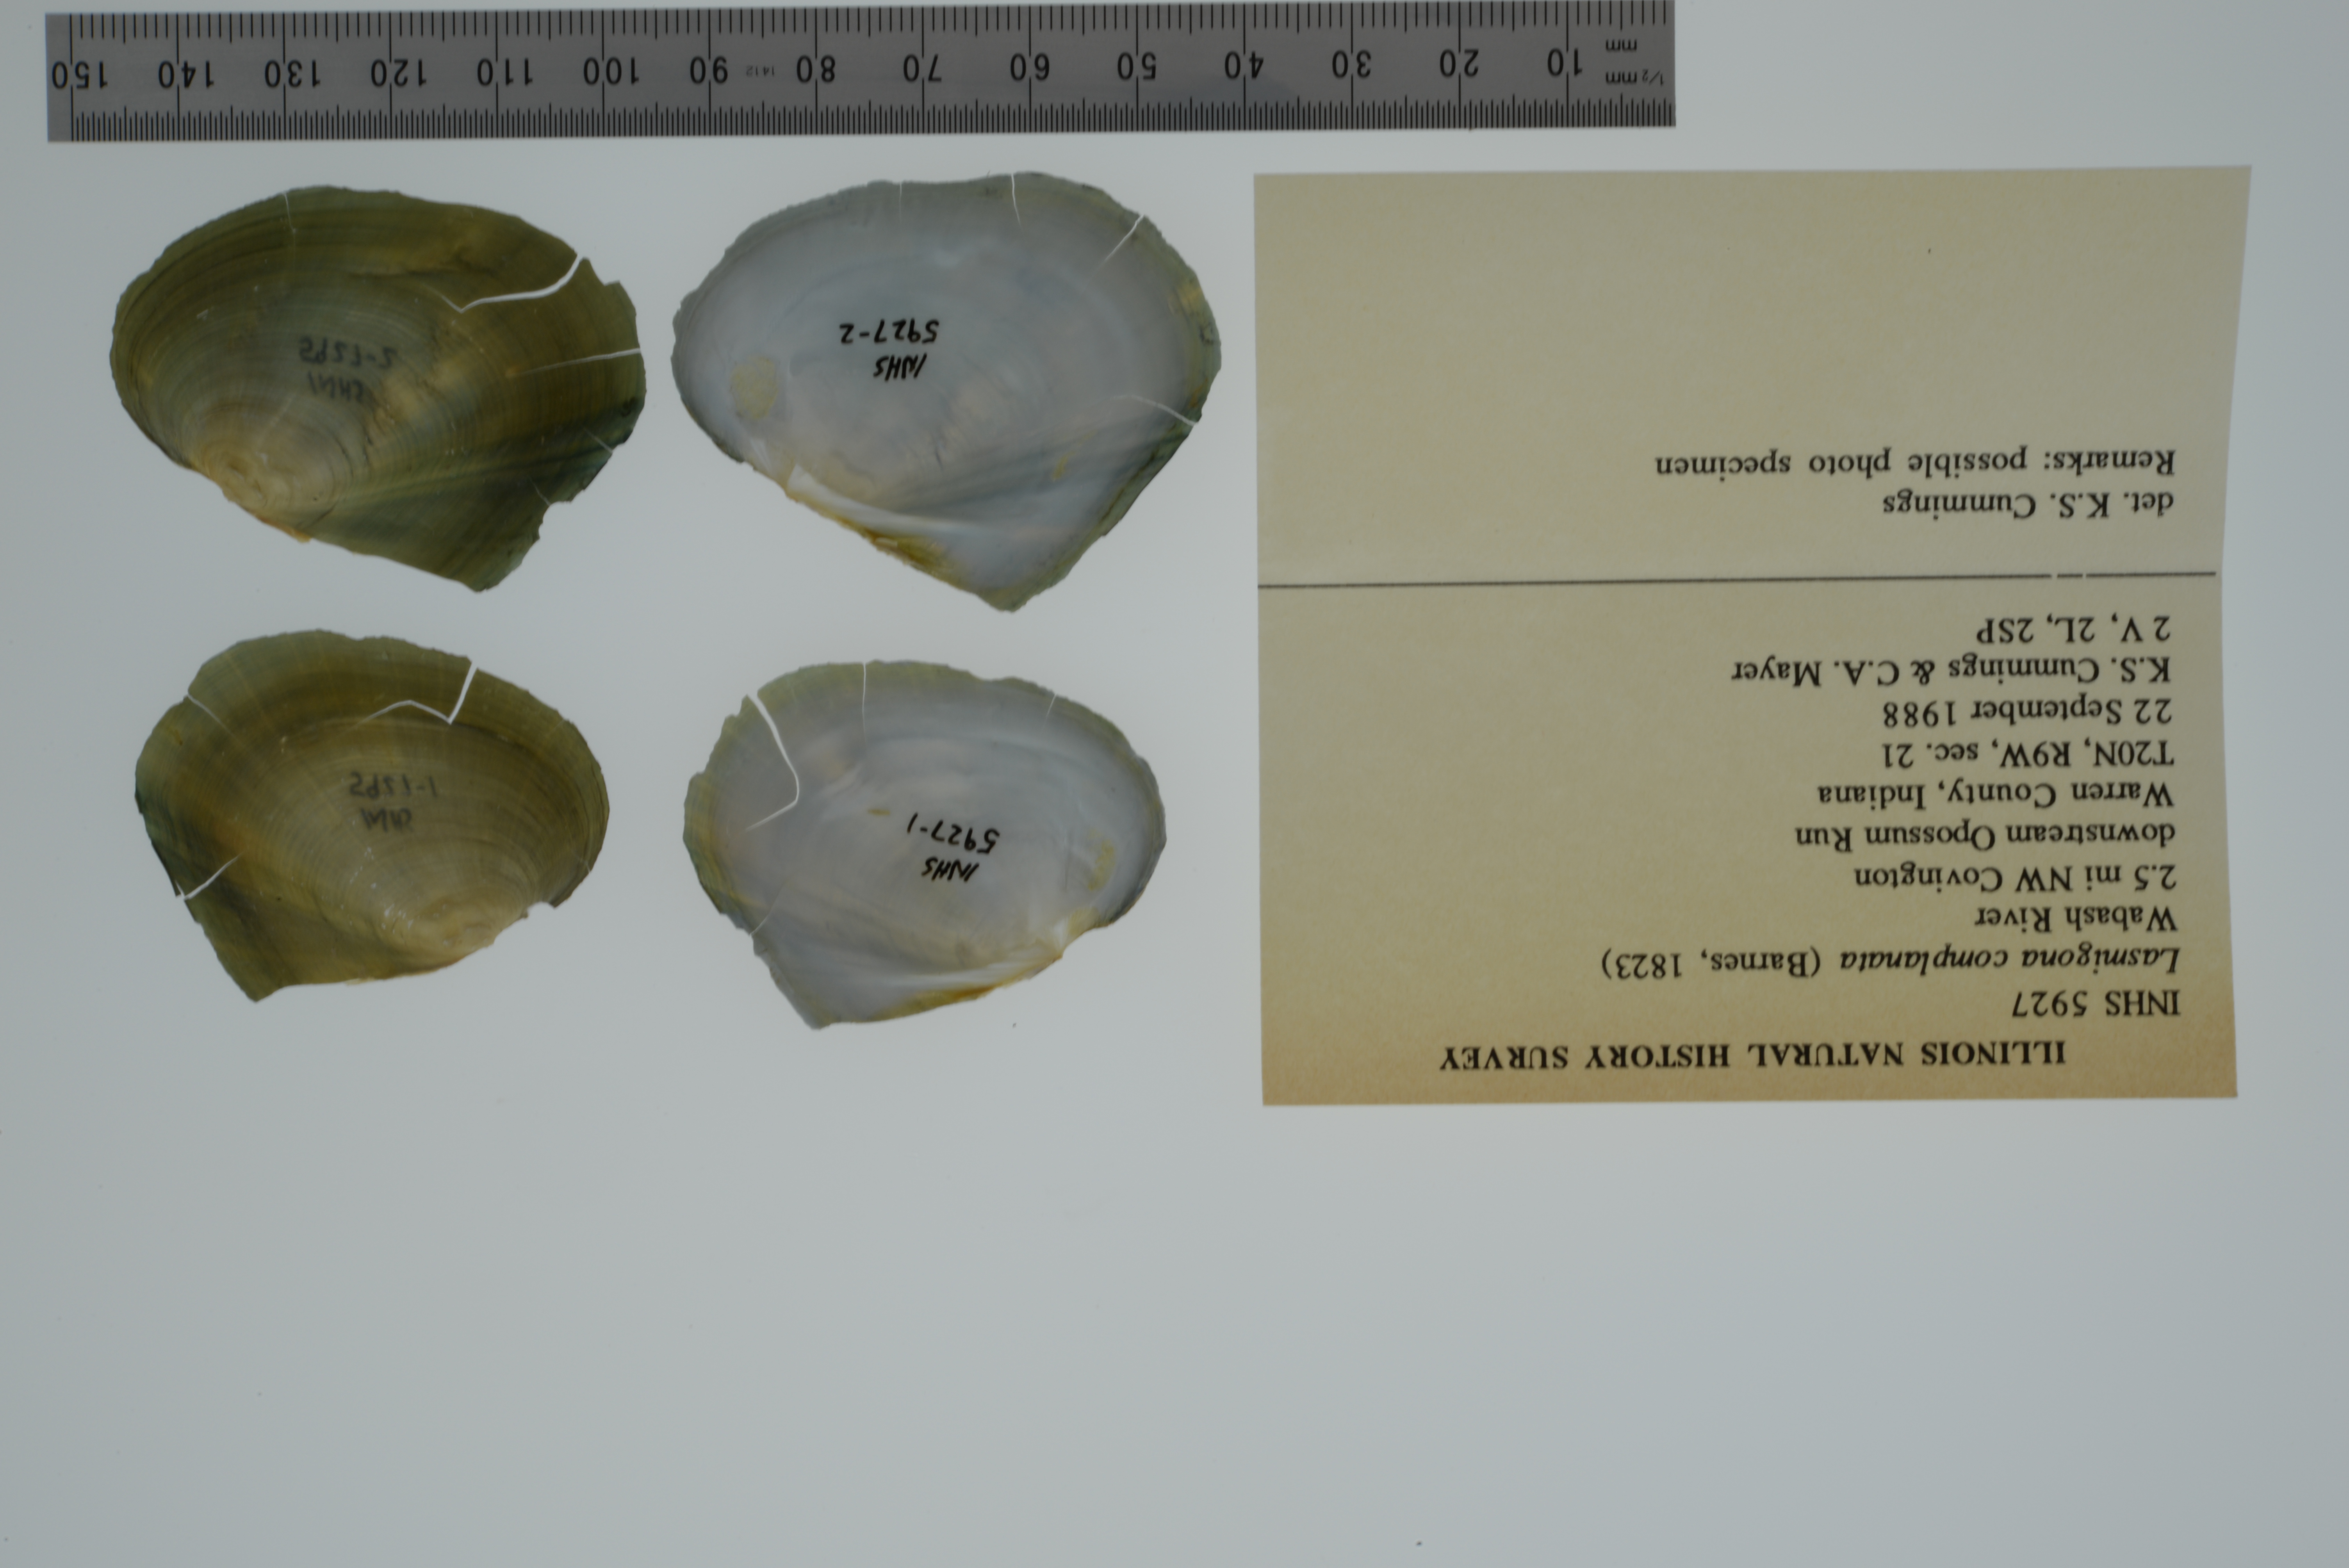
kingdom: Animalia
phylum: Mollusca
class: Bivalvia
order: Unionida
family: Unionidae
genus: Lasmigona
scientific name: Lasmigona complanata
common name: White heelsplitter
